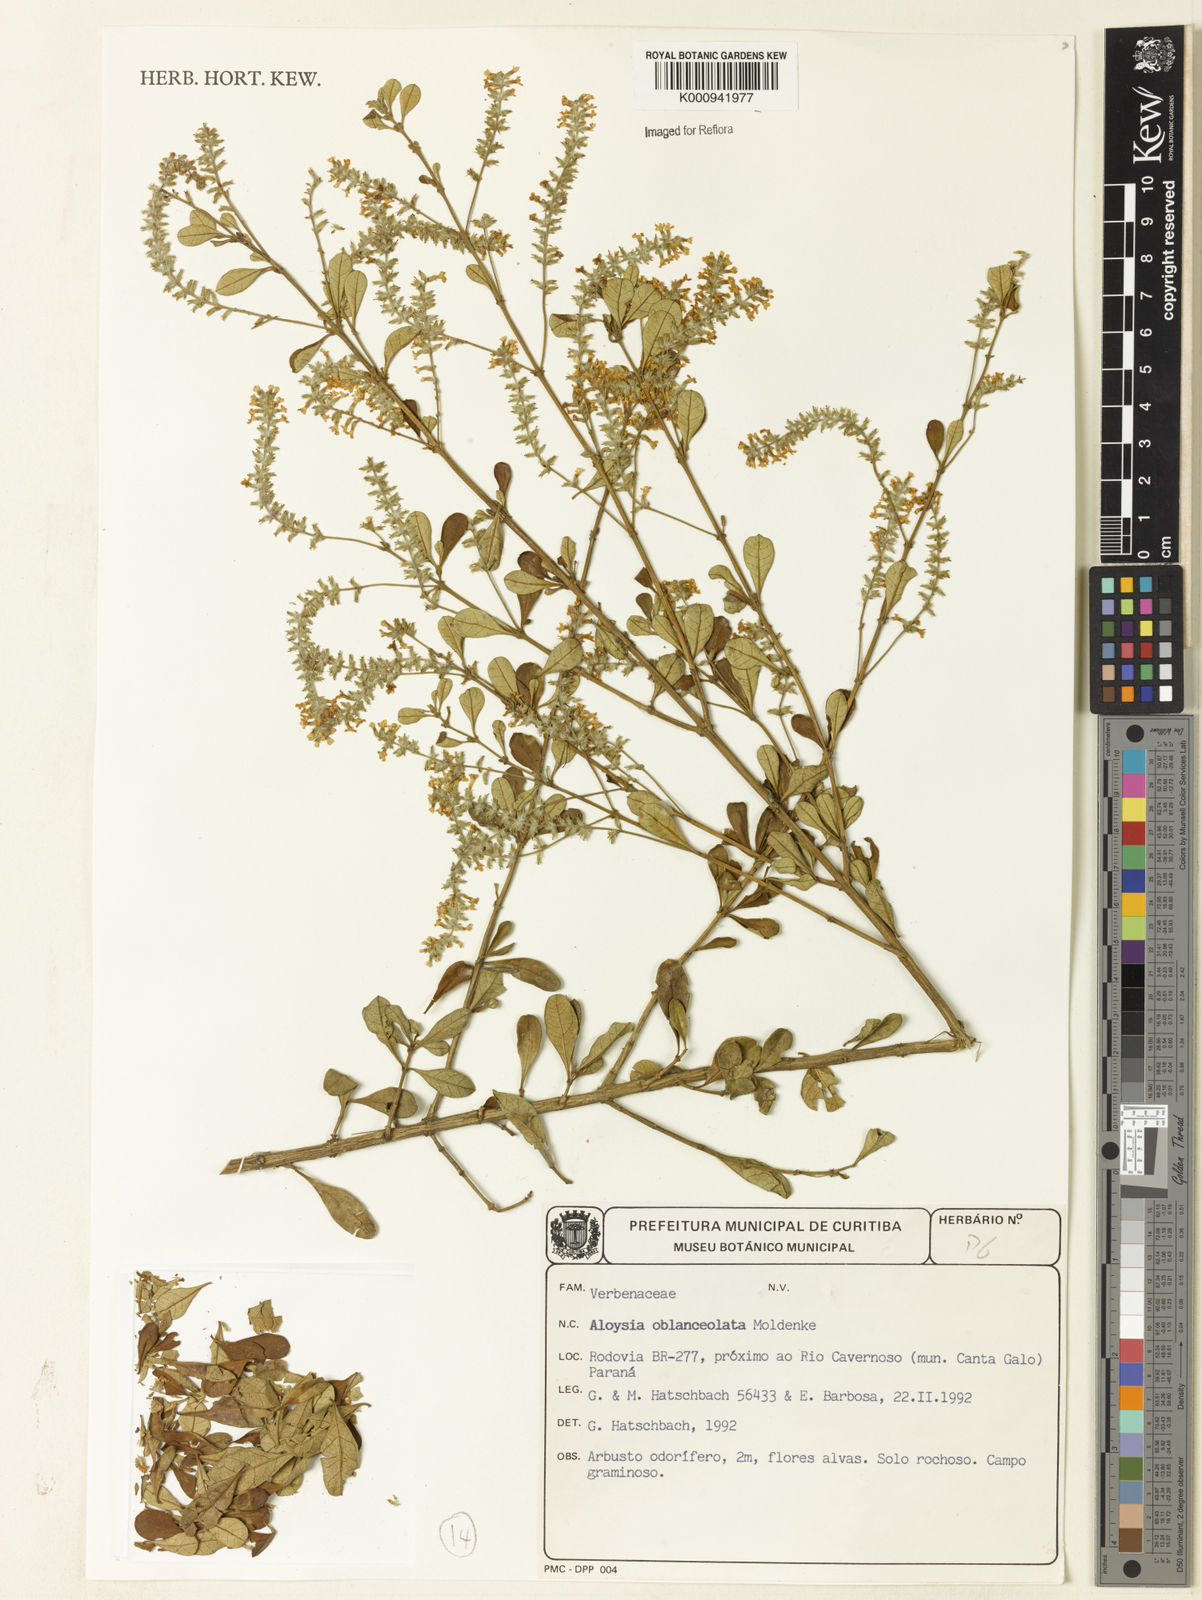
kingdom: Plantae
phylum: Tracheophyta
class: Magnoliopsida
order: Lamiales
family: Verbenaceae
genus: Aloysia
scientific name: Aloysia oblanceolata
